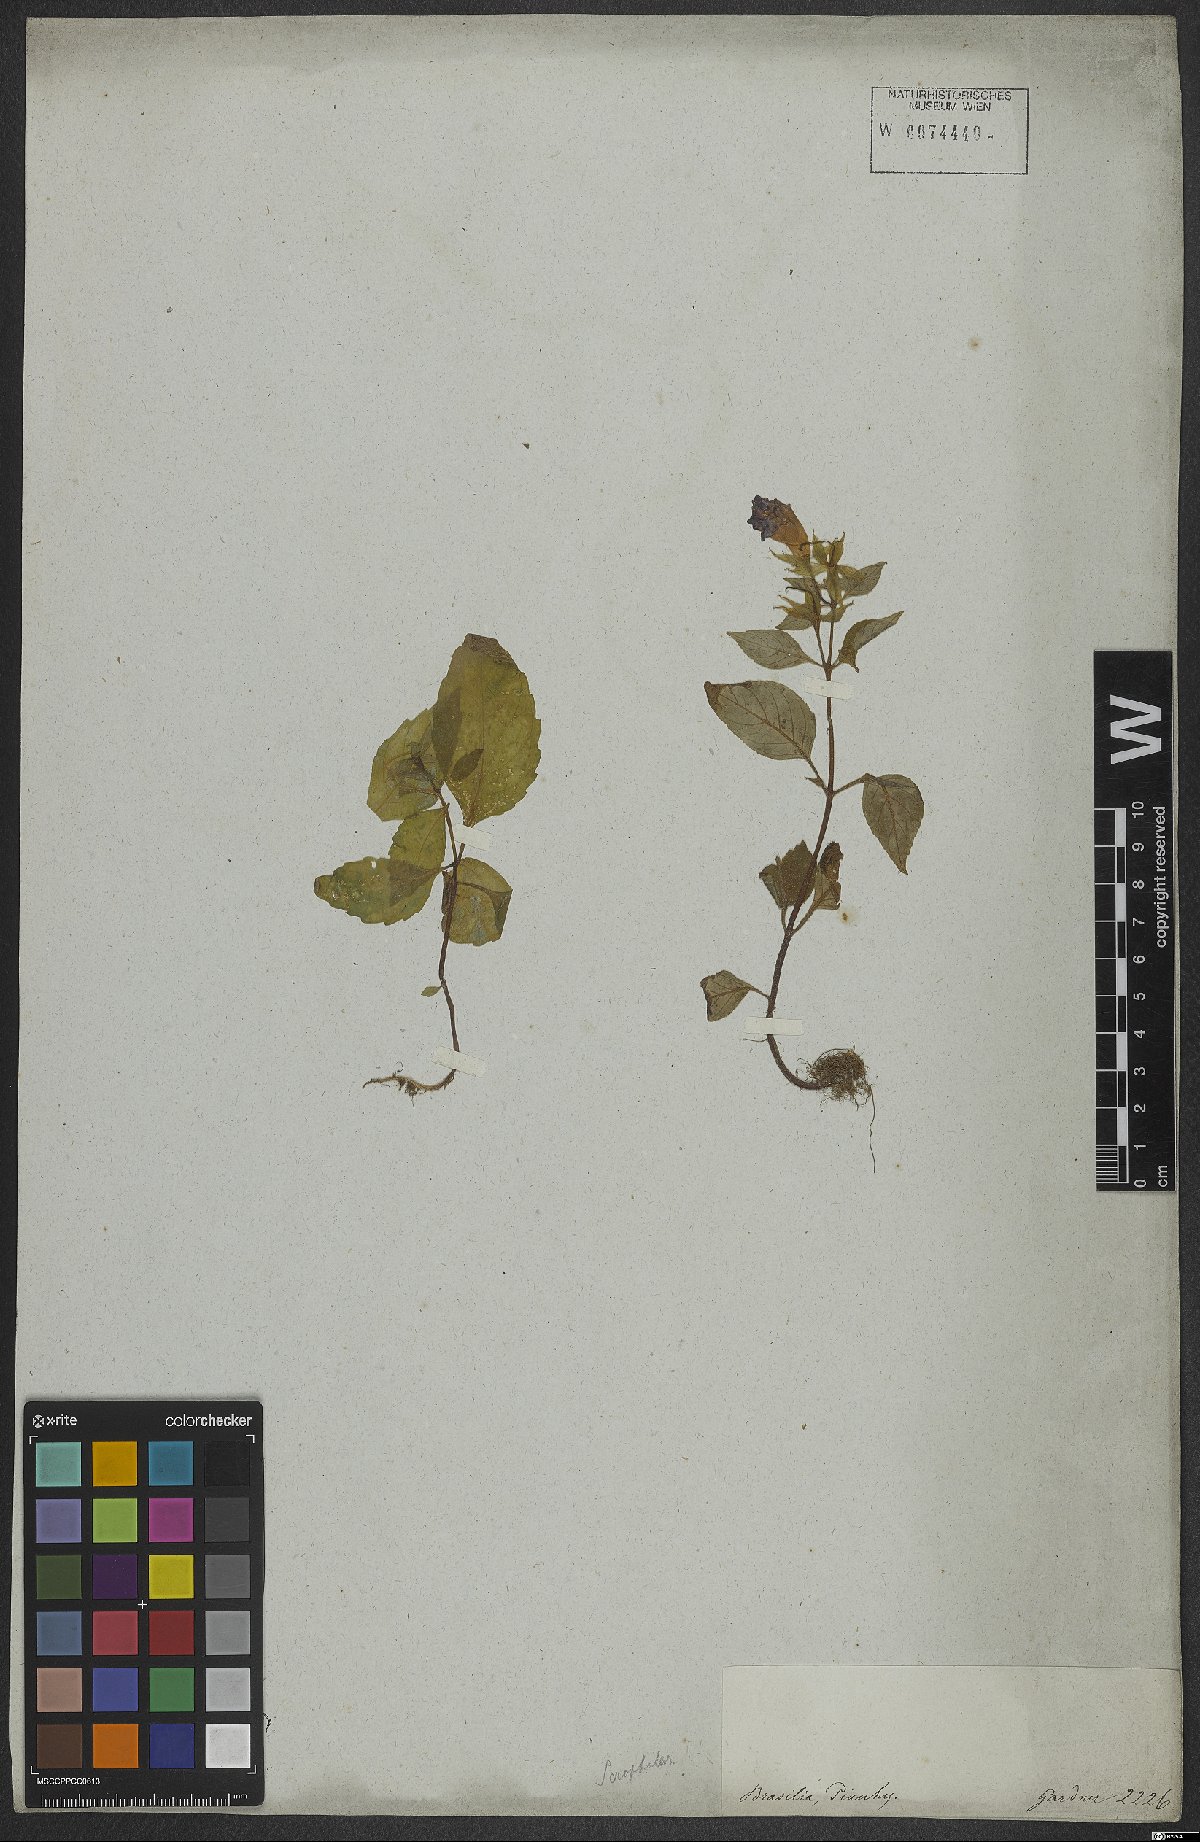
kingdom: Plantae
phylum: Tracheophyta
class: Magnoliopsida
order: Lamiales
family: Scrophulariaceae
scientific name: Scrophulariaceae
